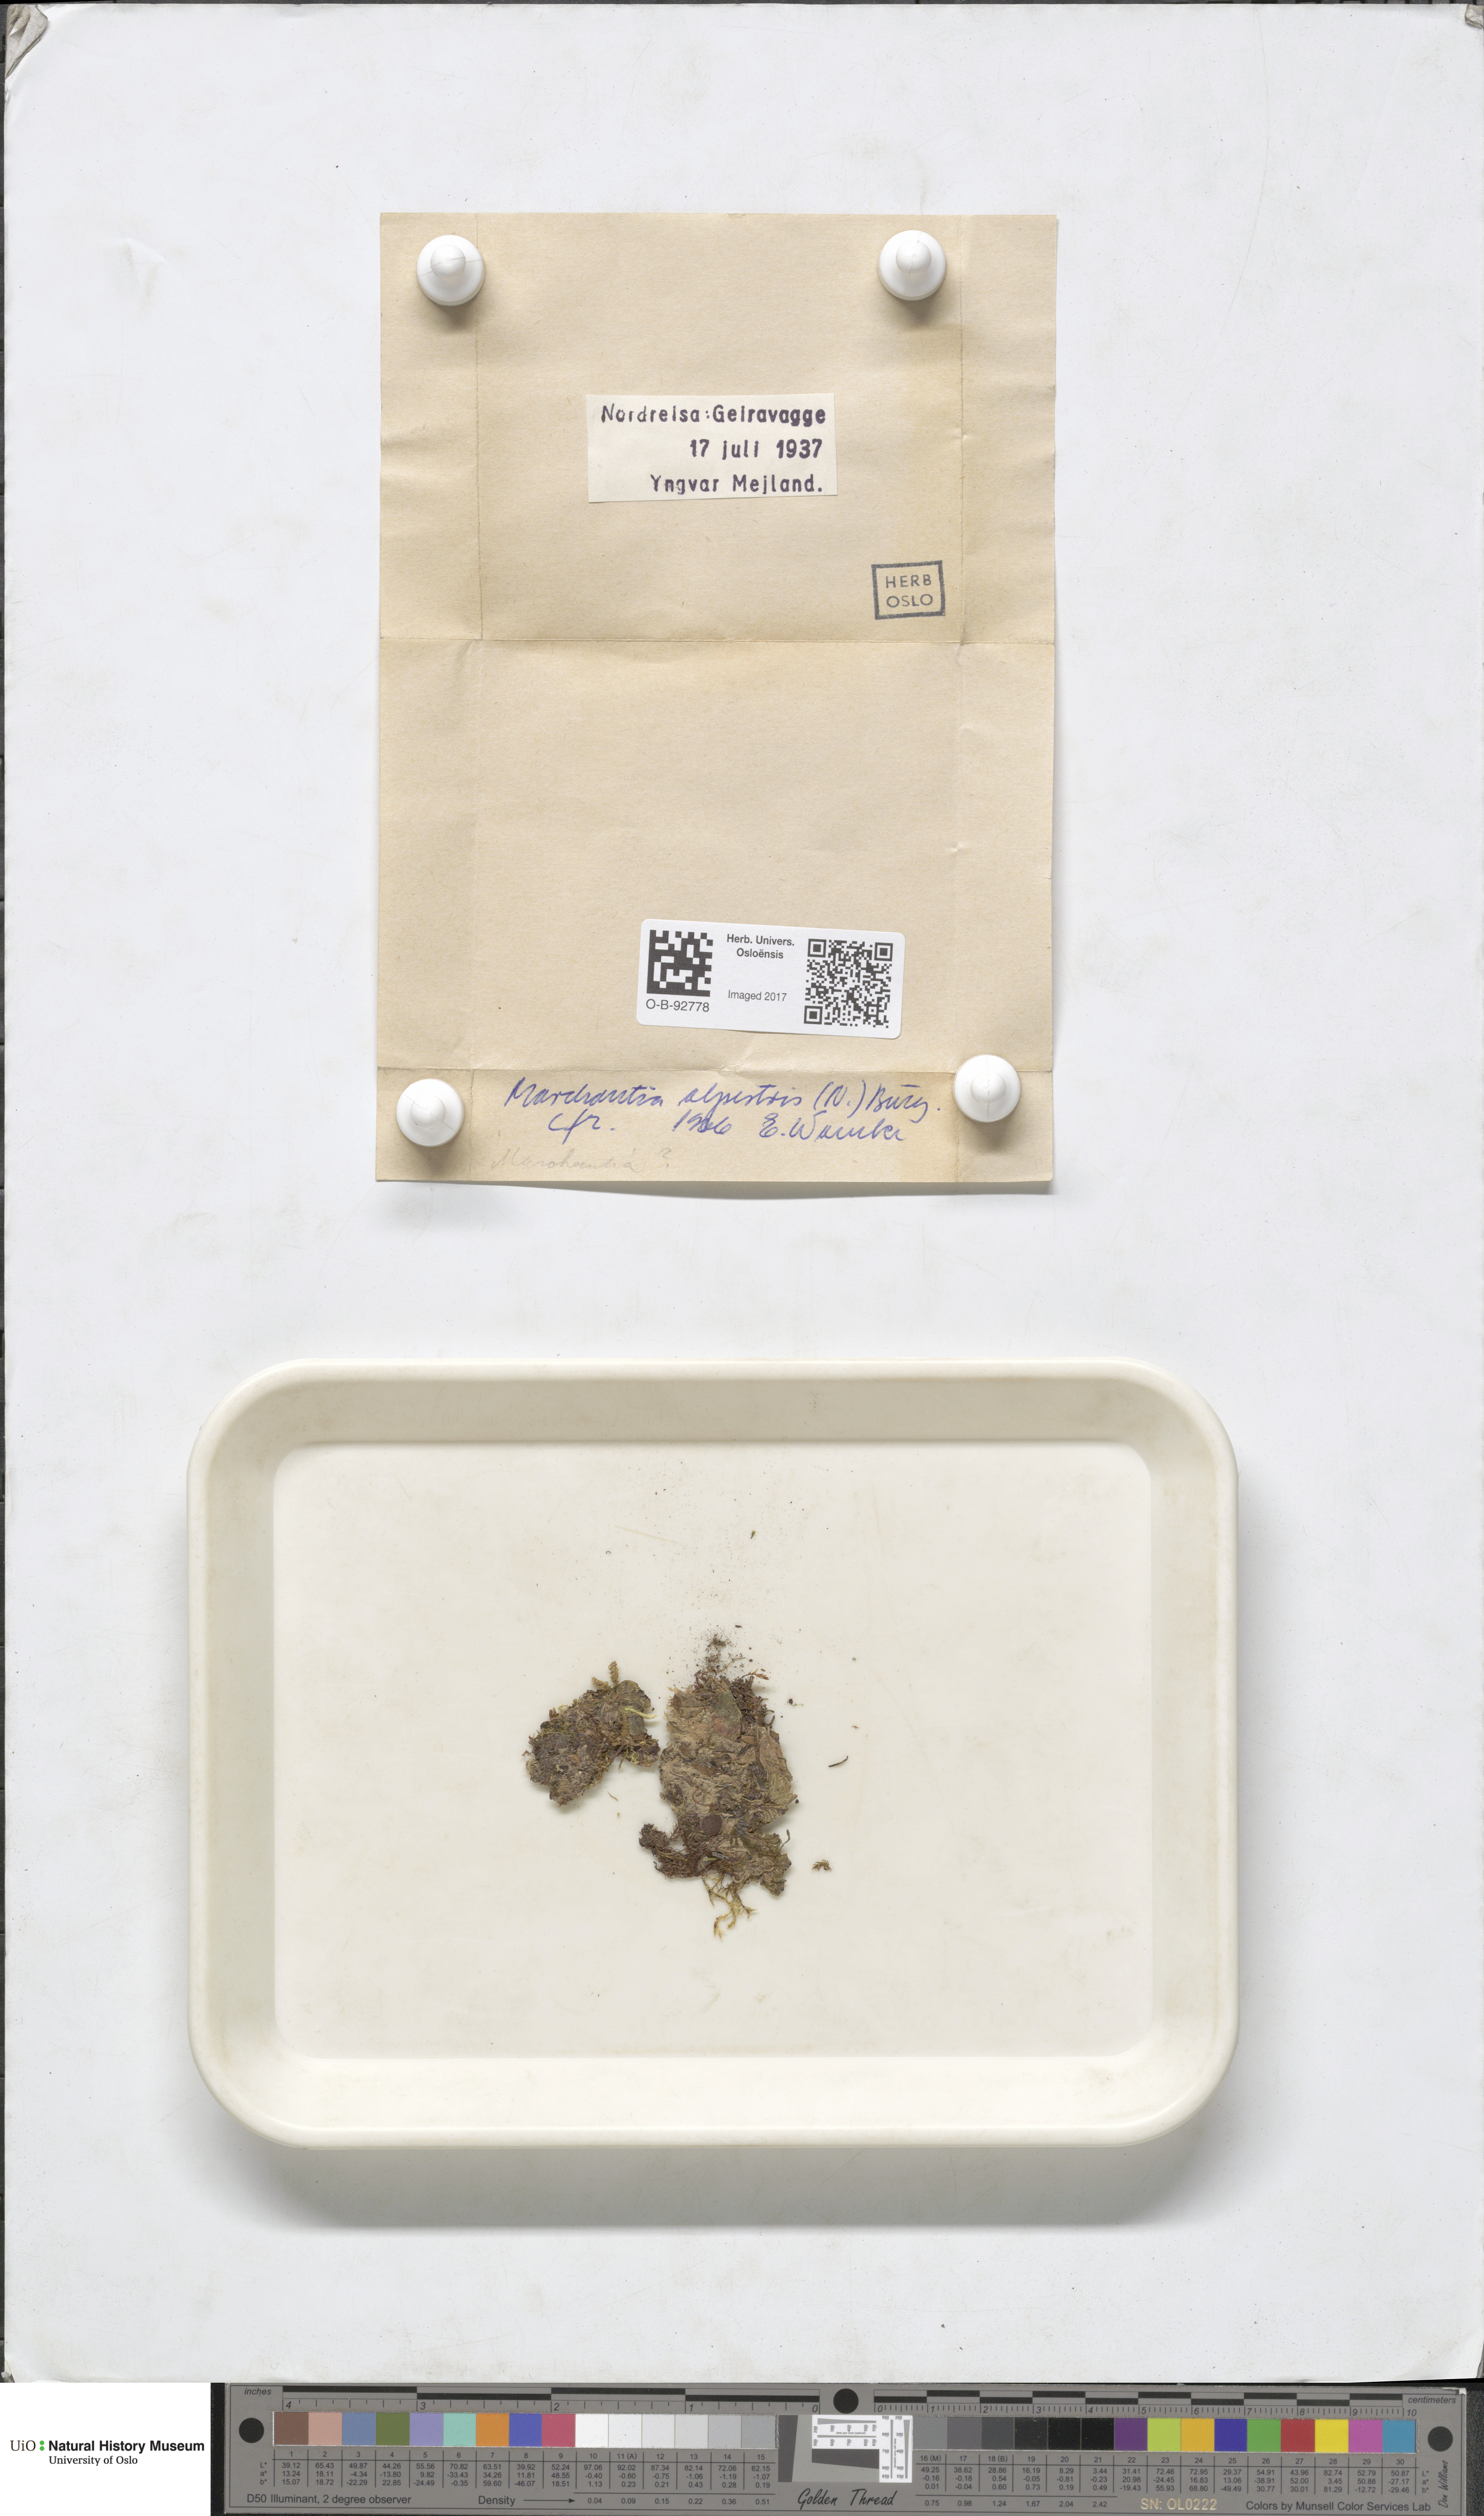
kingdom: Plantae
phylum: Marchantiophyta
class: Marchantiopsida
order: Marchantiales
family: Marchantiaceae
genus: Marchantia
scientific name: Marchantia polymorpha
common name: Common liverwort
